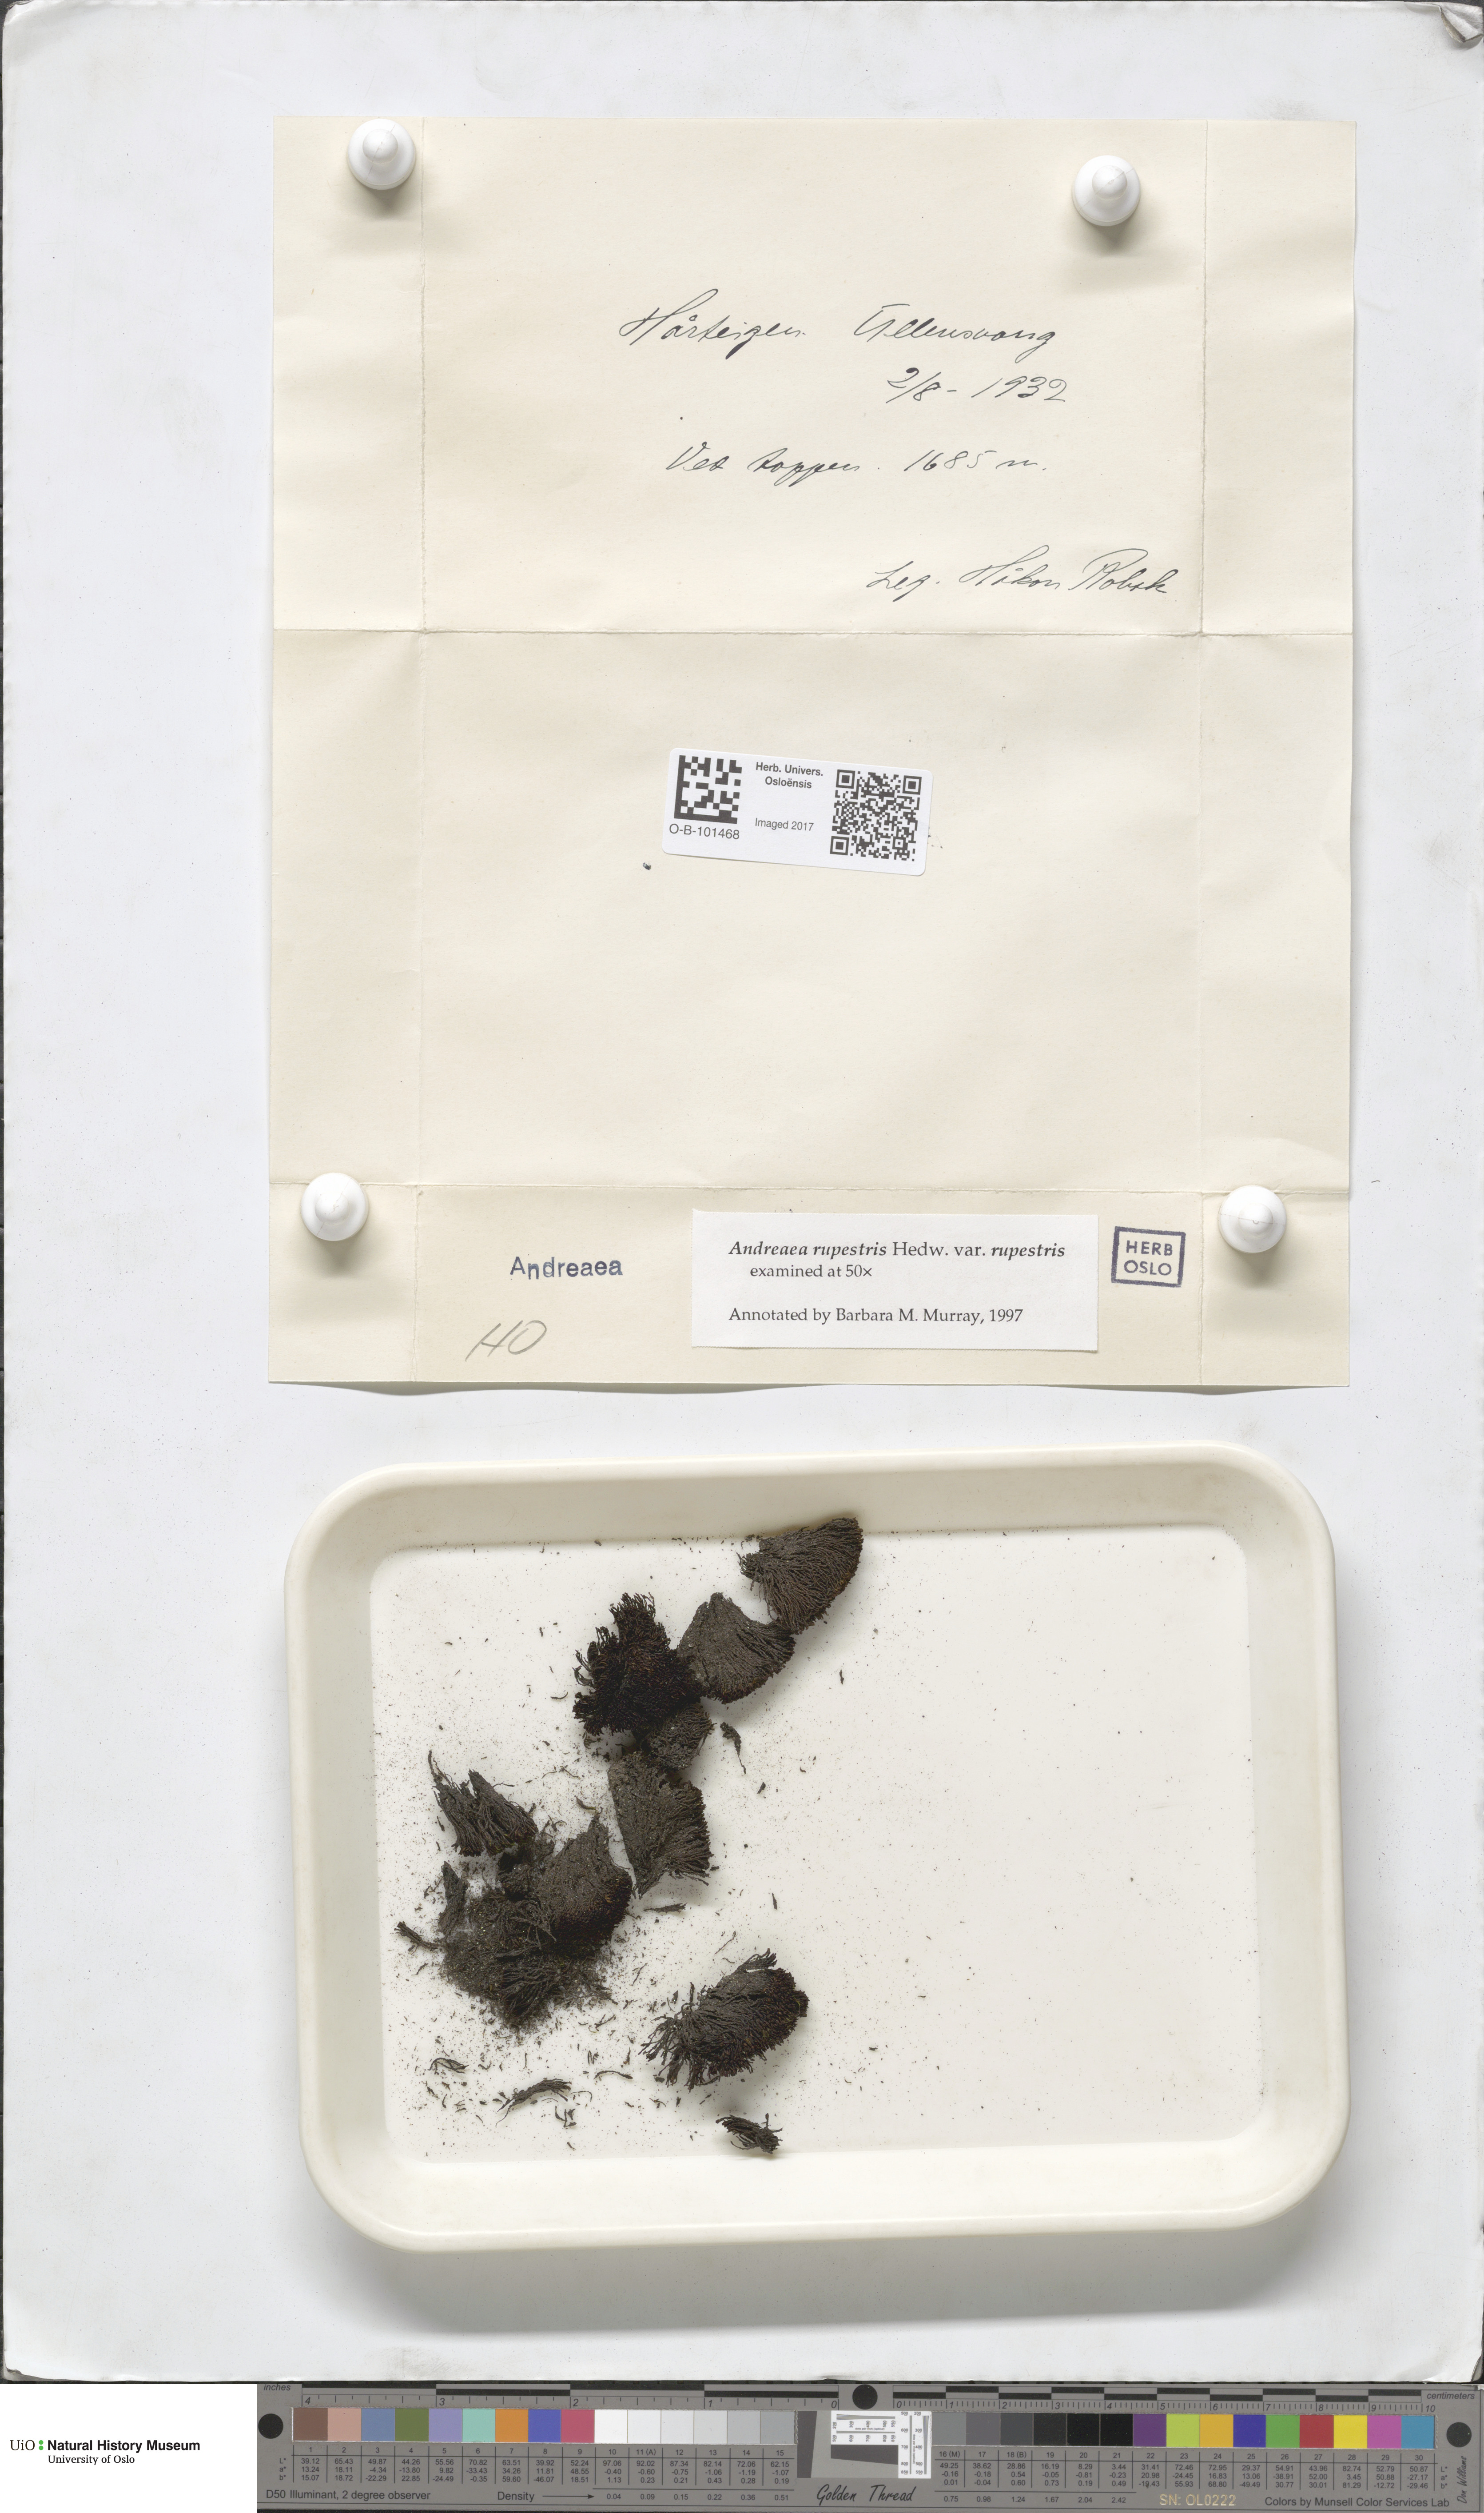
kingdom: Plantae
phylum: Bryophyta
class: Andreaeopsida
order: Andreaeales
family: Andreaeaceae
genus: Andreaea
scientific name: Andreaea rupestris
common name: Black rock moss
